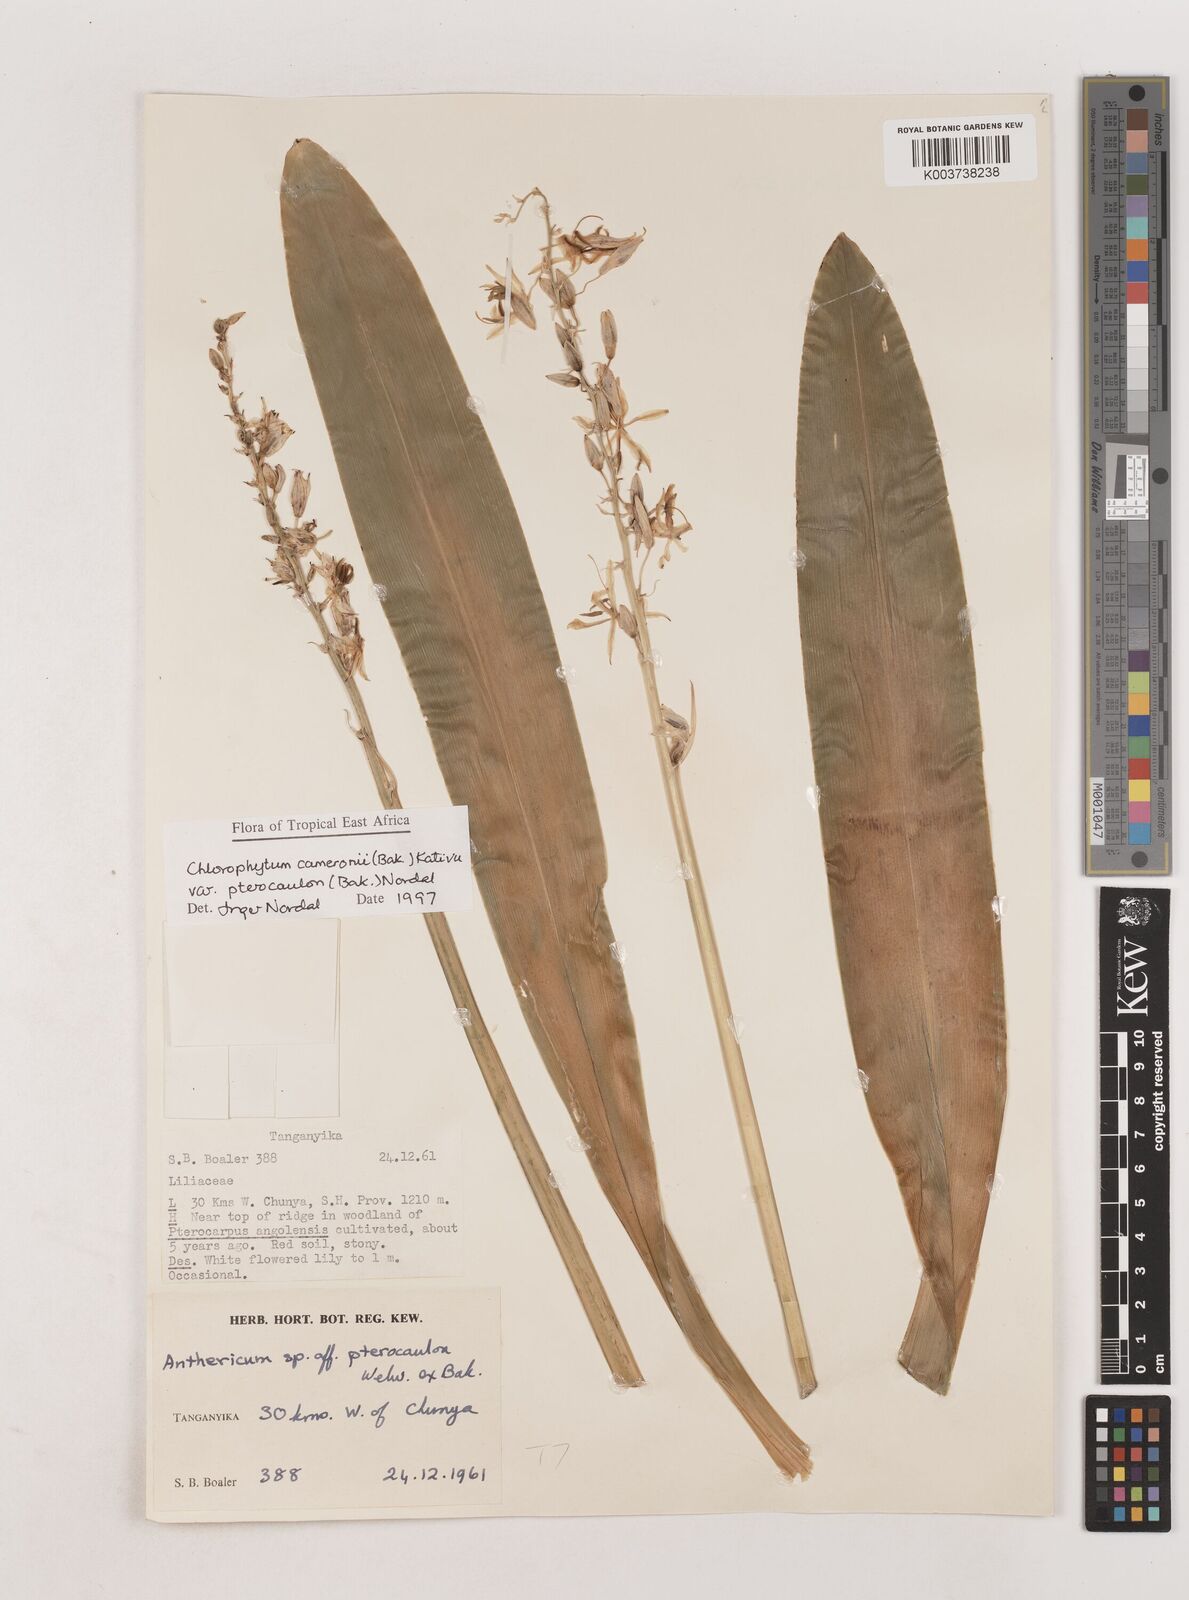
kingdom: Plantae
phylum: Tracheophyta
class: Liliopsida
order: Asparagales
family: Asparagaceae
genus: Chlorophytum
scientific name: Chlorophytum cameronii
